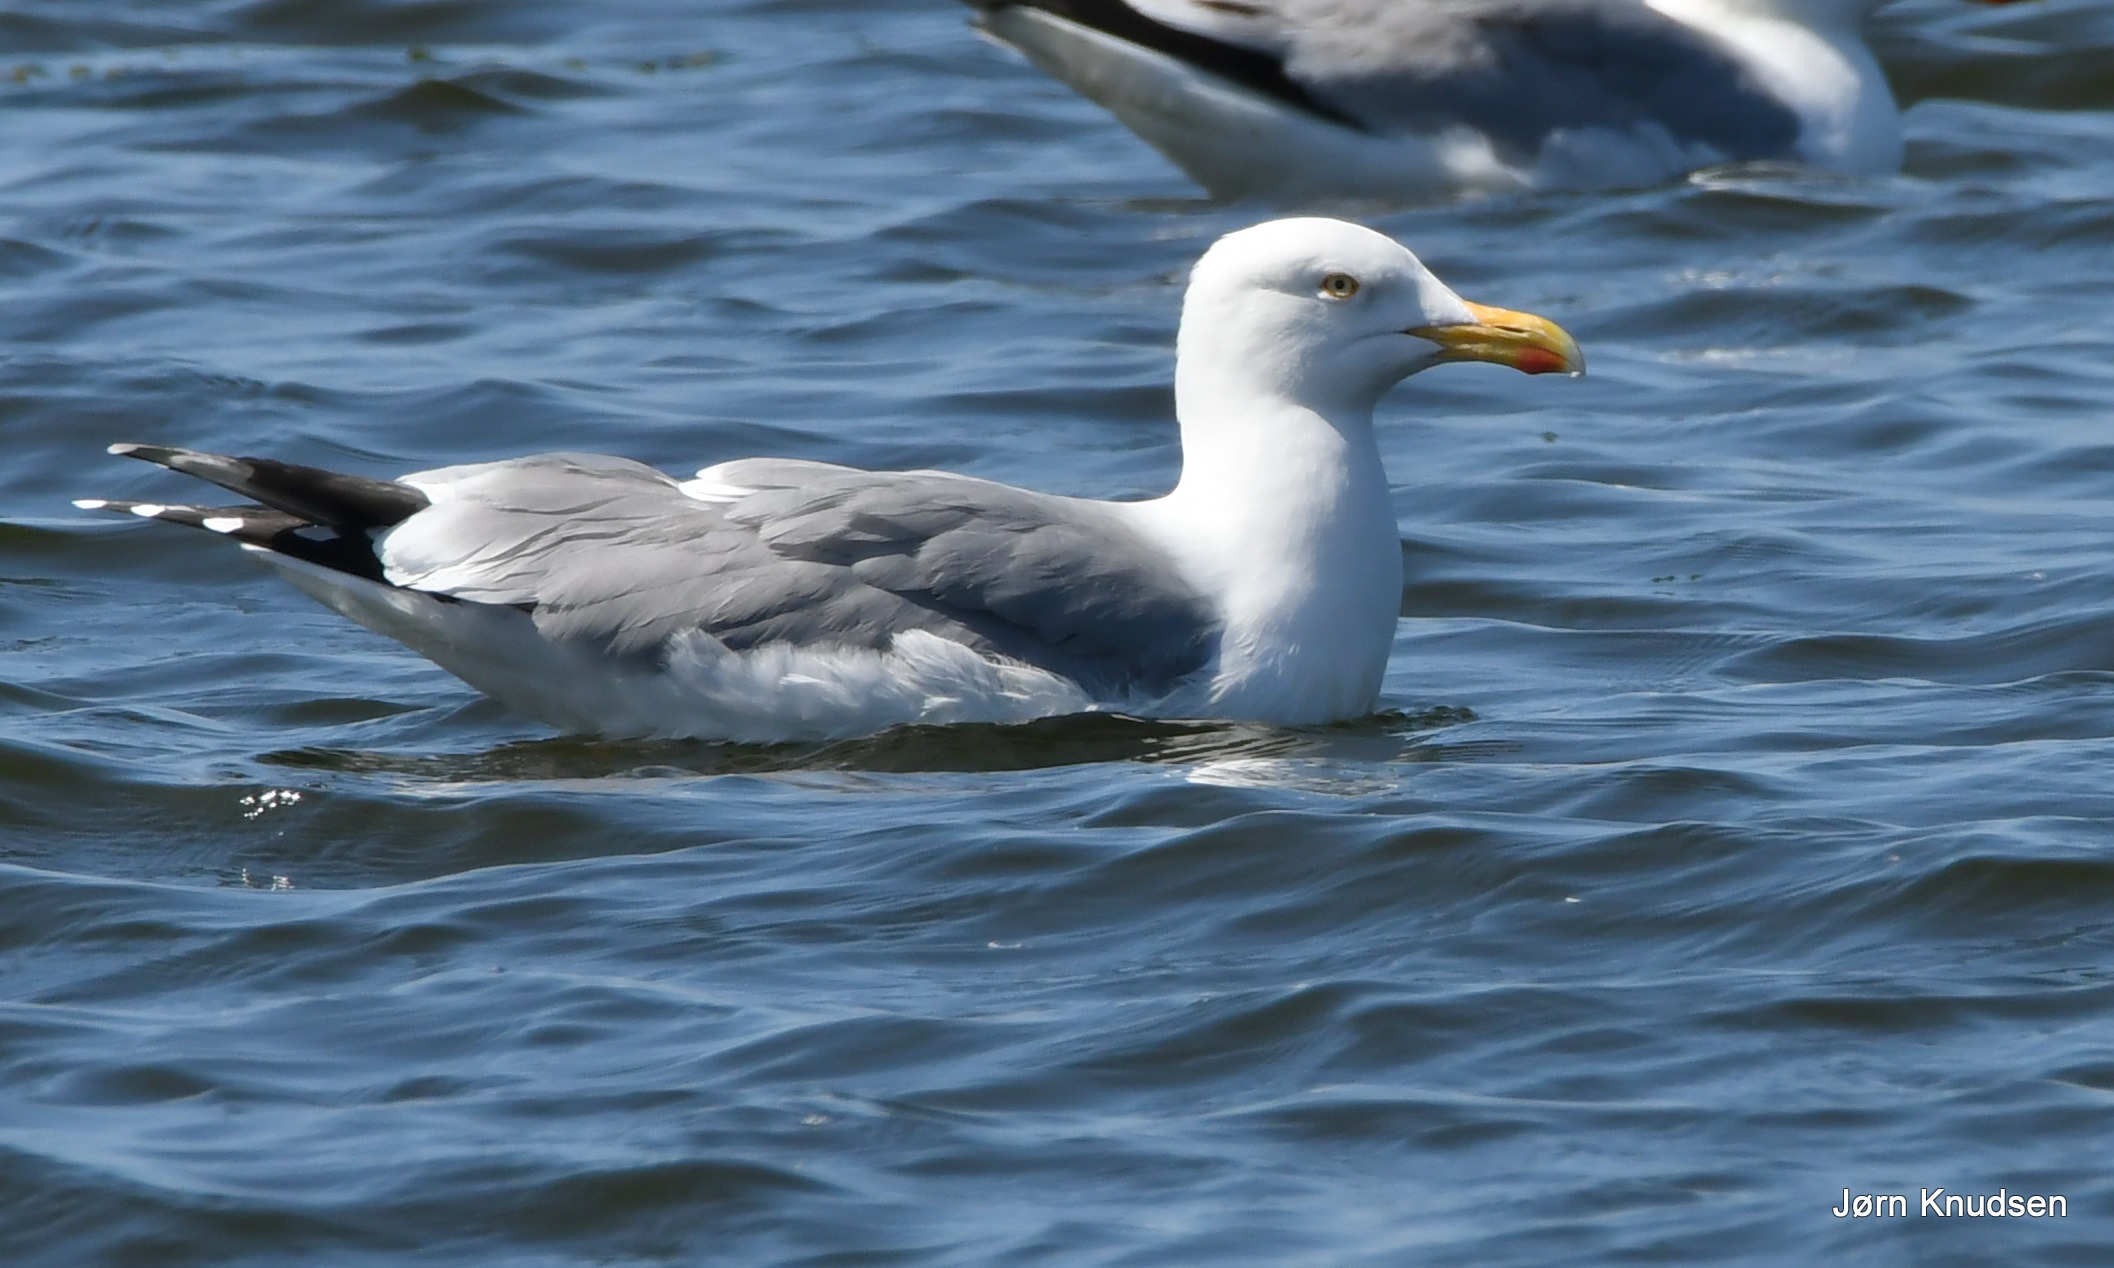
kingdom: Animalia
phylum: Chordata
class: Aves
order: Charadriiformes
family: Laridae
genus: Larus
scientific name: Larus argentatus
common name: Sølvmåge
